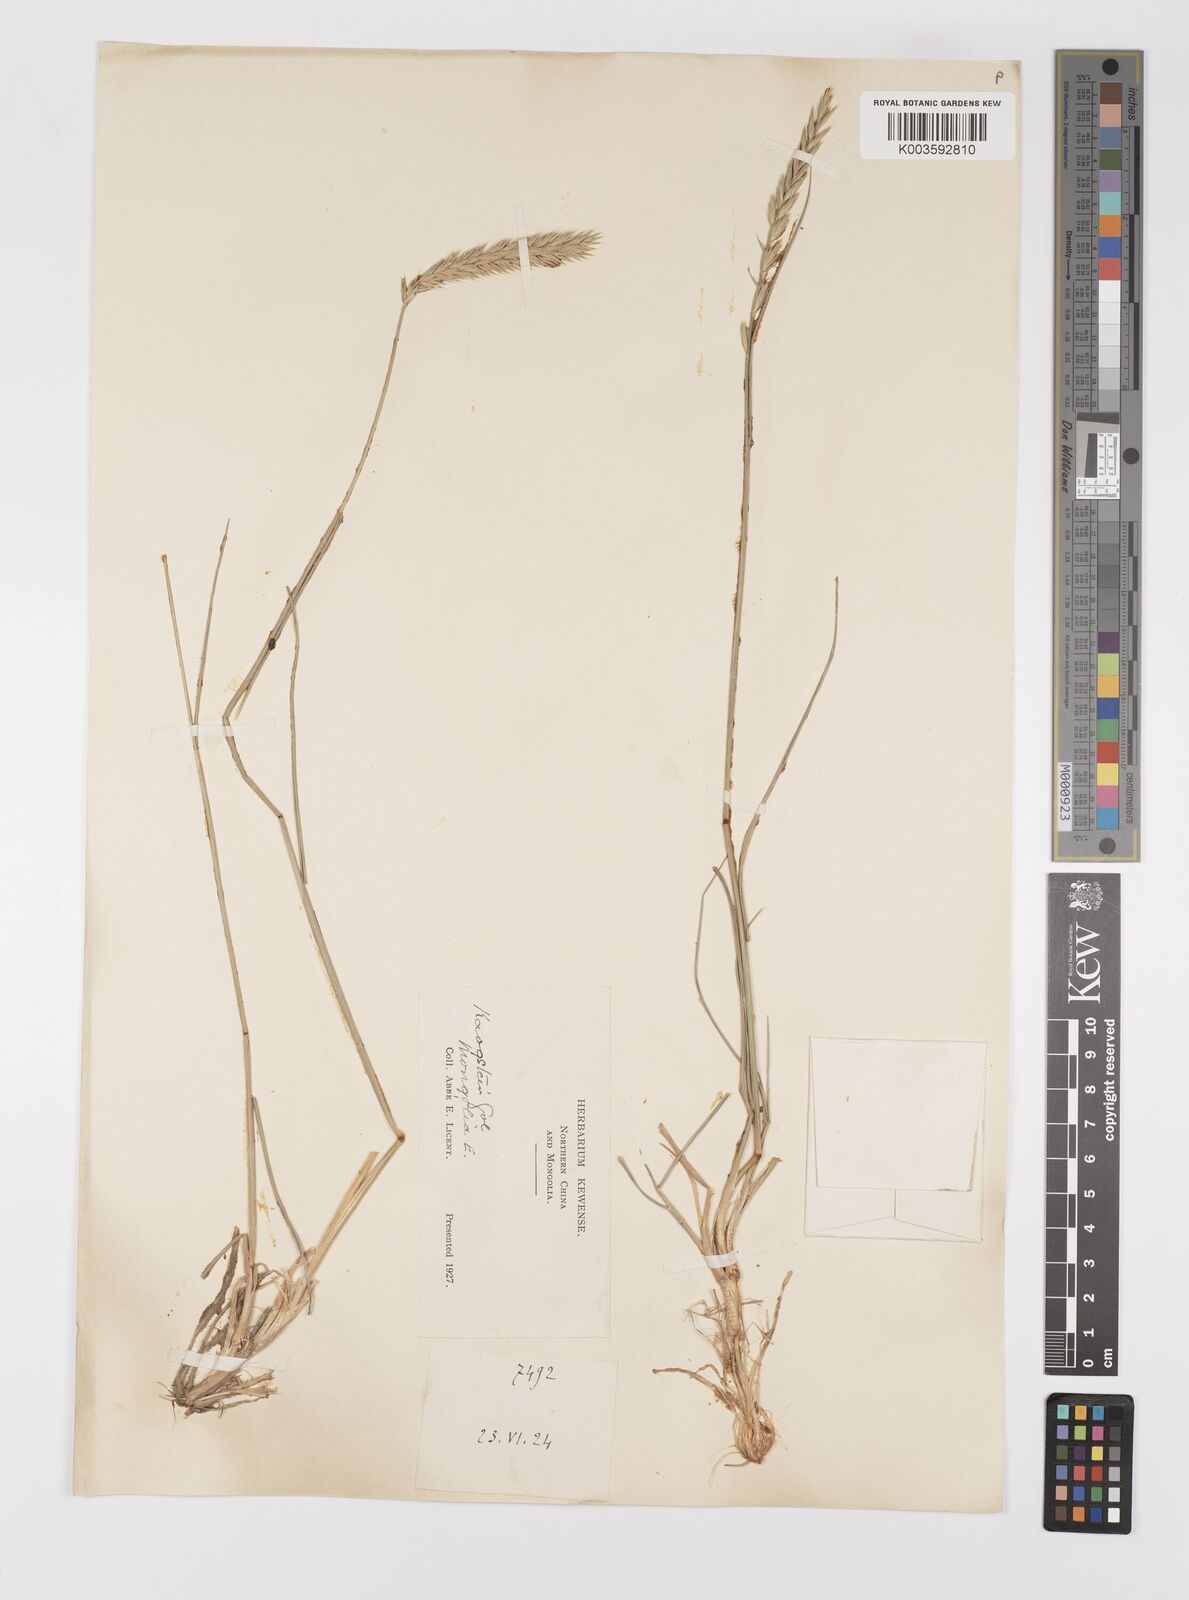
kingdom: Plantae
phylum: Tracheophyta
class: Liliopsida
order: Poales
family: Poaceae
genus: Agropyron
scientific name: Agropyron cristatum
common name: Crested wheatgrass
